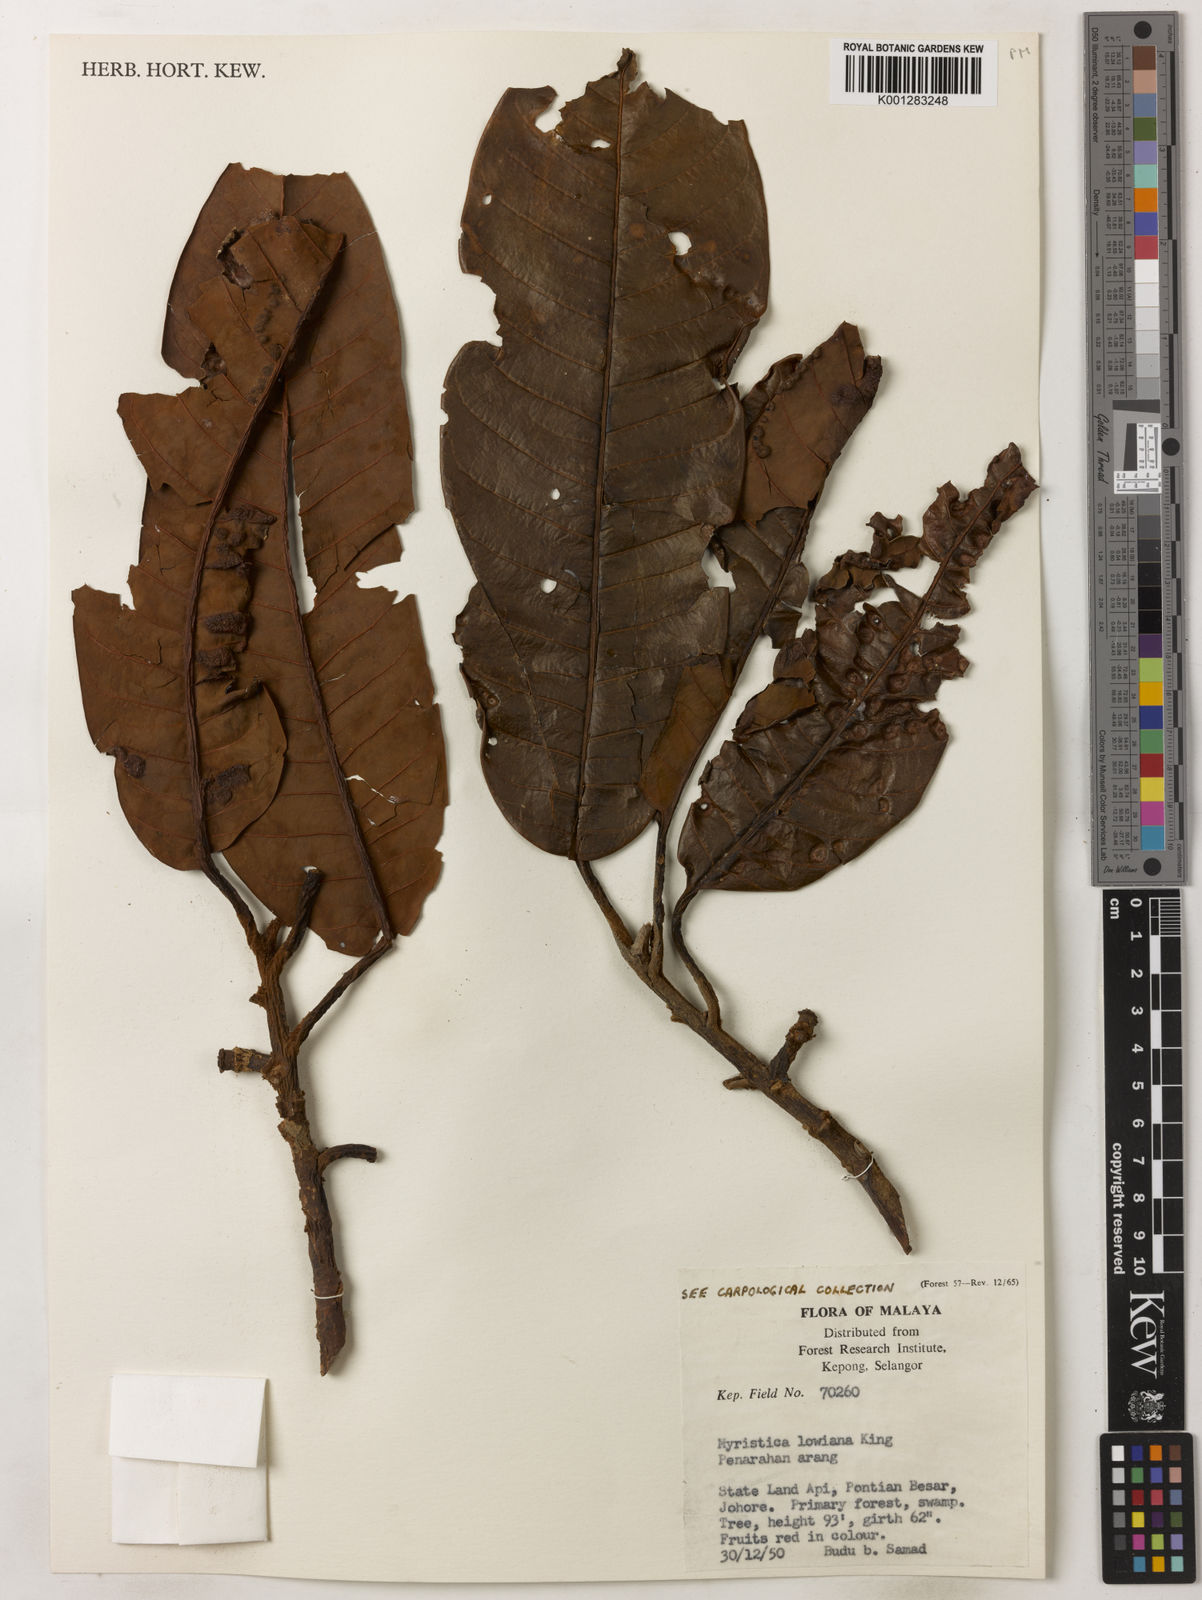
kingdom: Plantae
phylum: Tracheophyta
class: Magnoliopsida
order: Magnoliales
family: Myristicaceae
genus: Myristica
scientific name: Myristica lowiana
